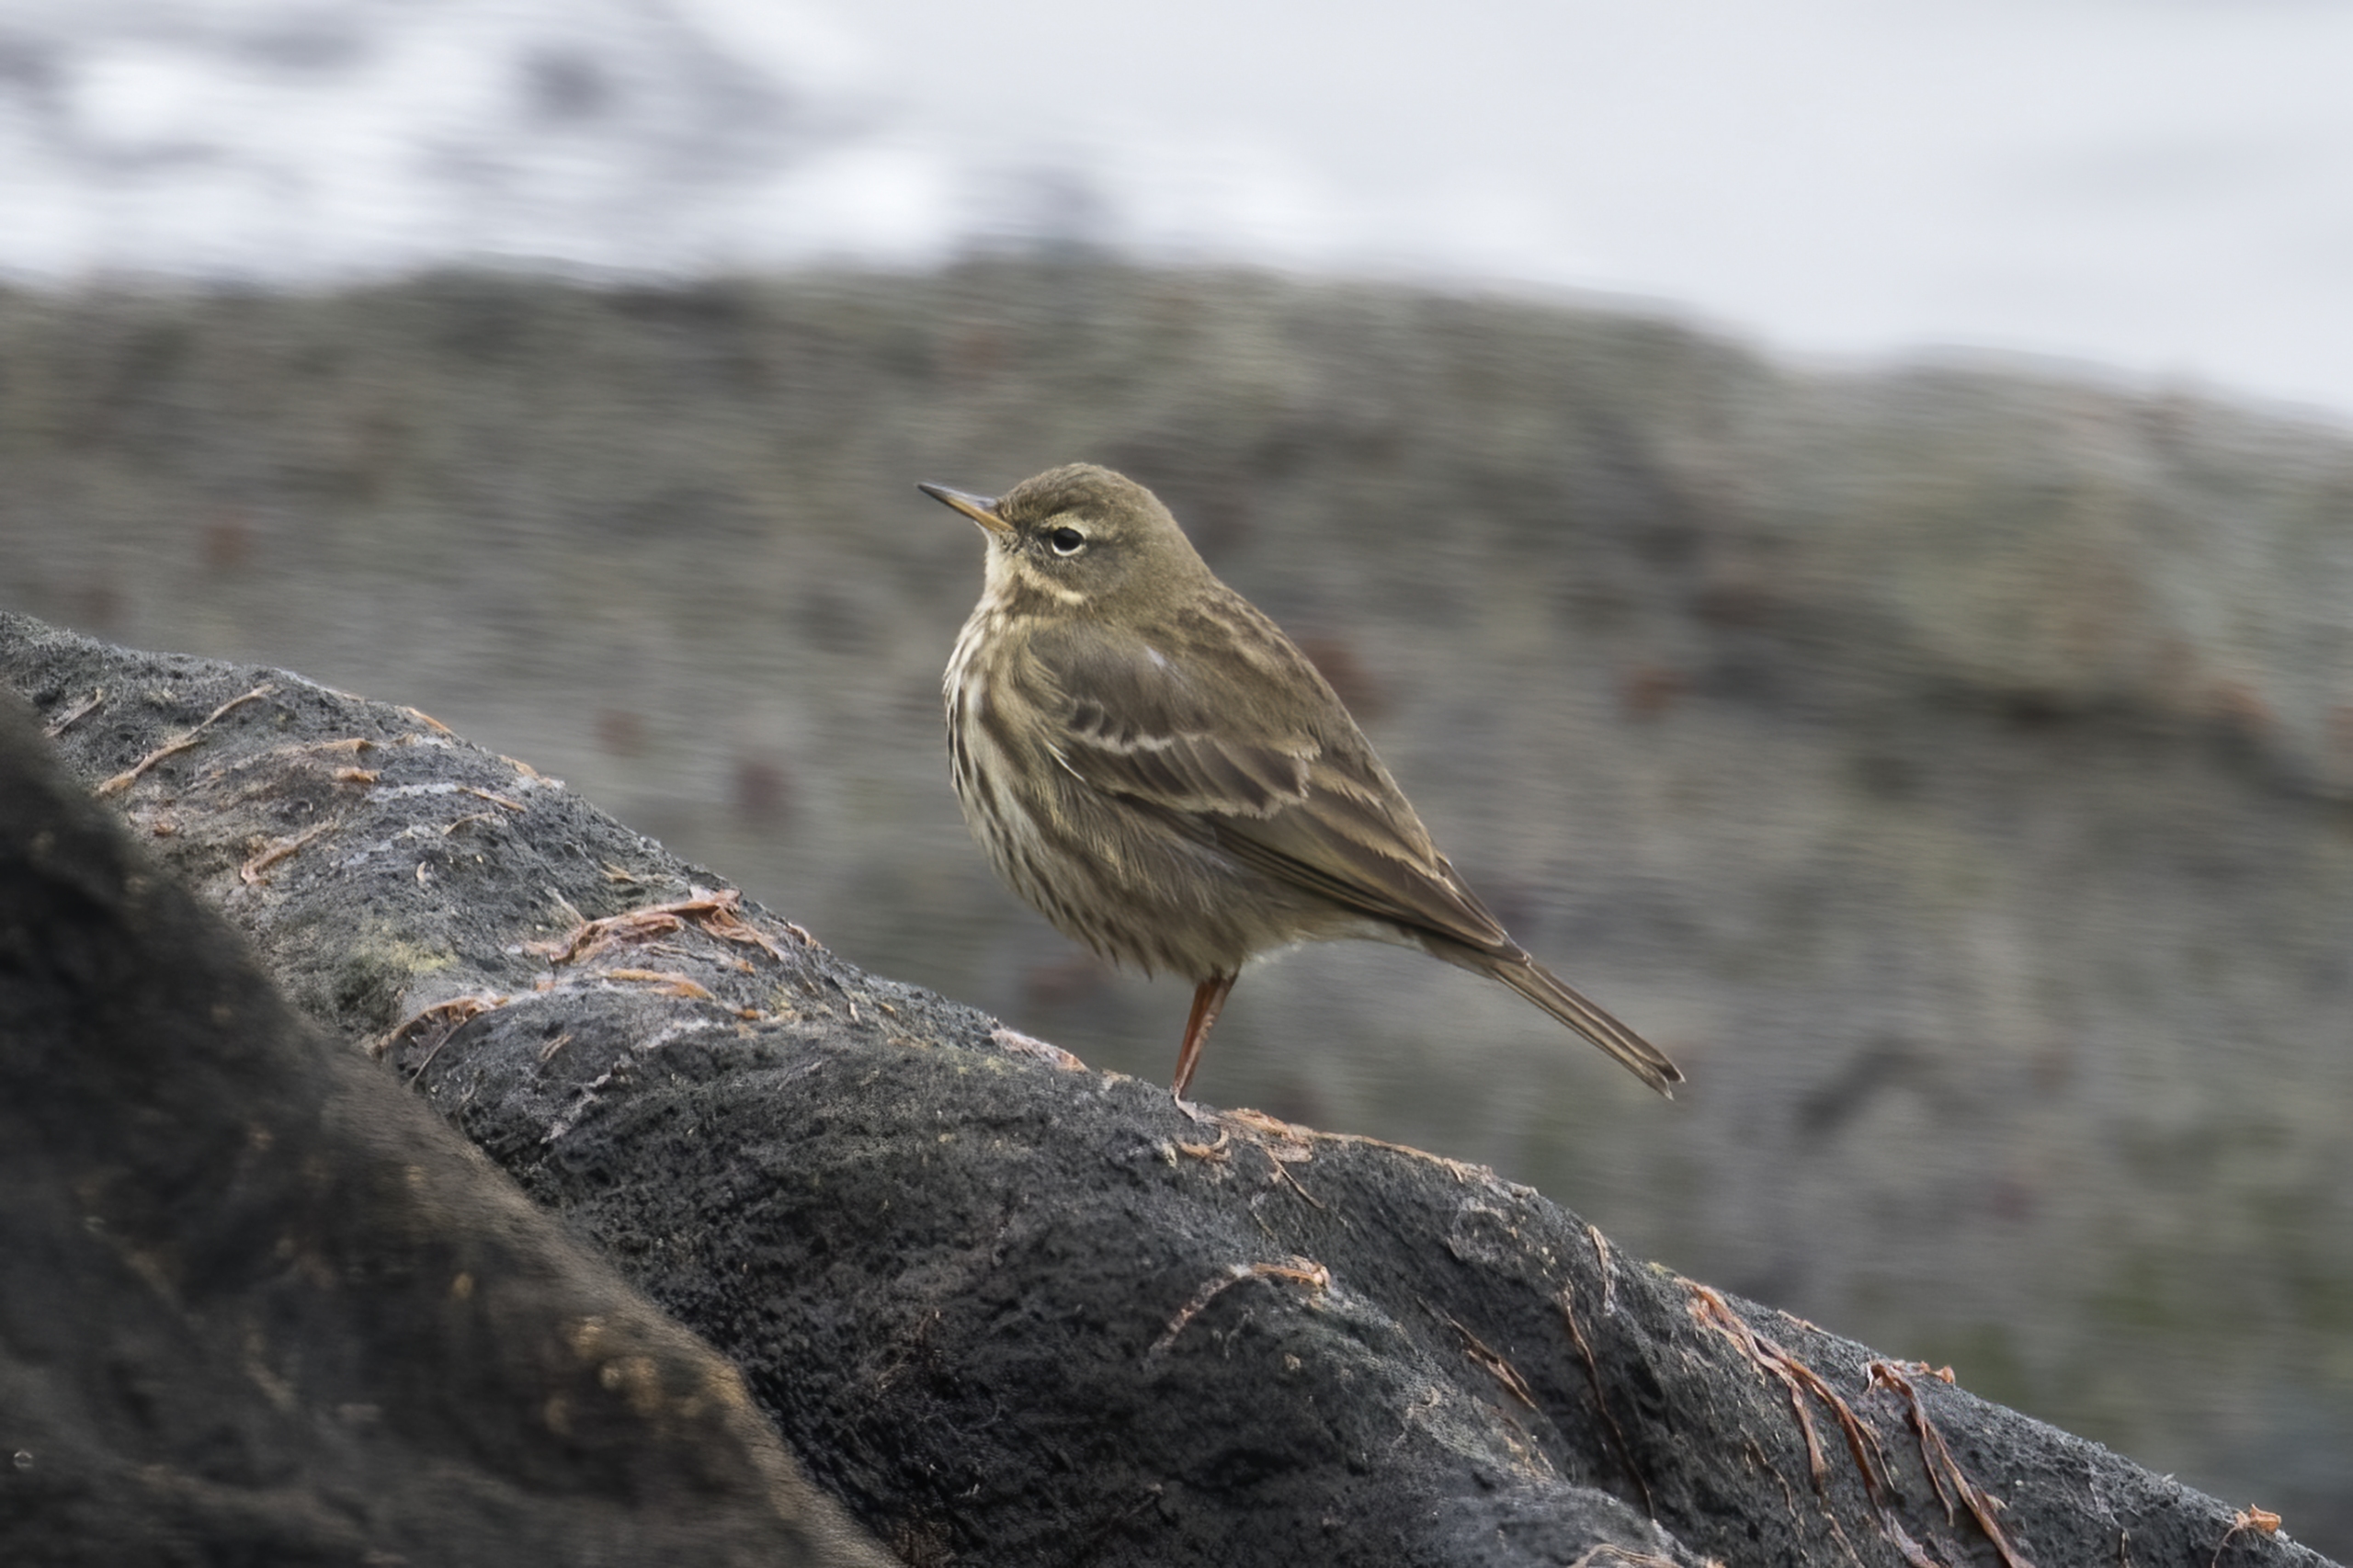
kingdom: Animalia
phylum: Chordata
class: Aves
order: Passeriformes
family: Motacillidae
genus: Anthus
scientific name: Anthus petrosus
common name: Skærpiber
